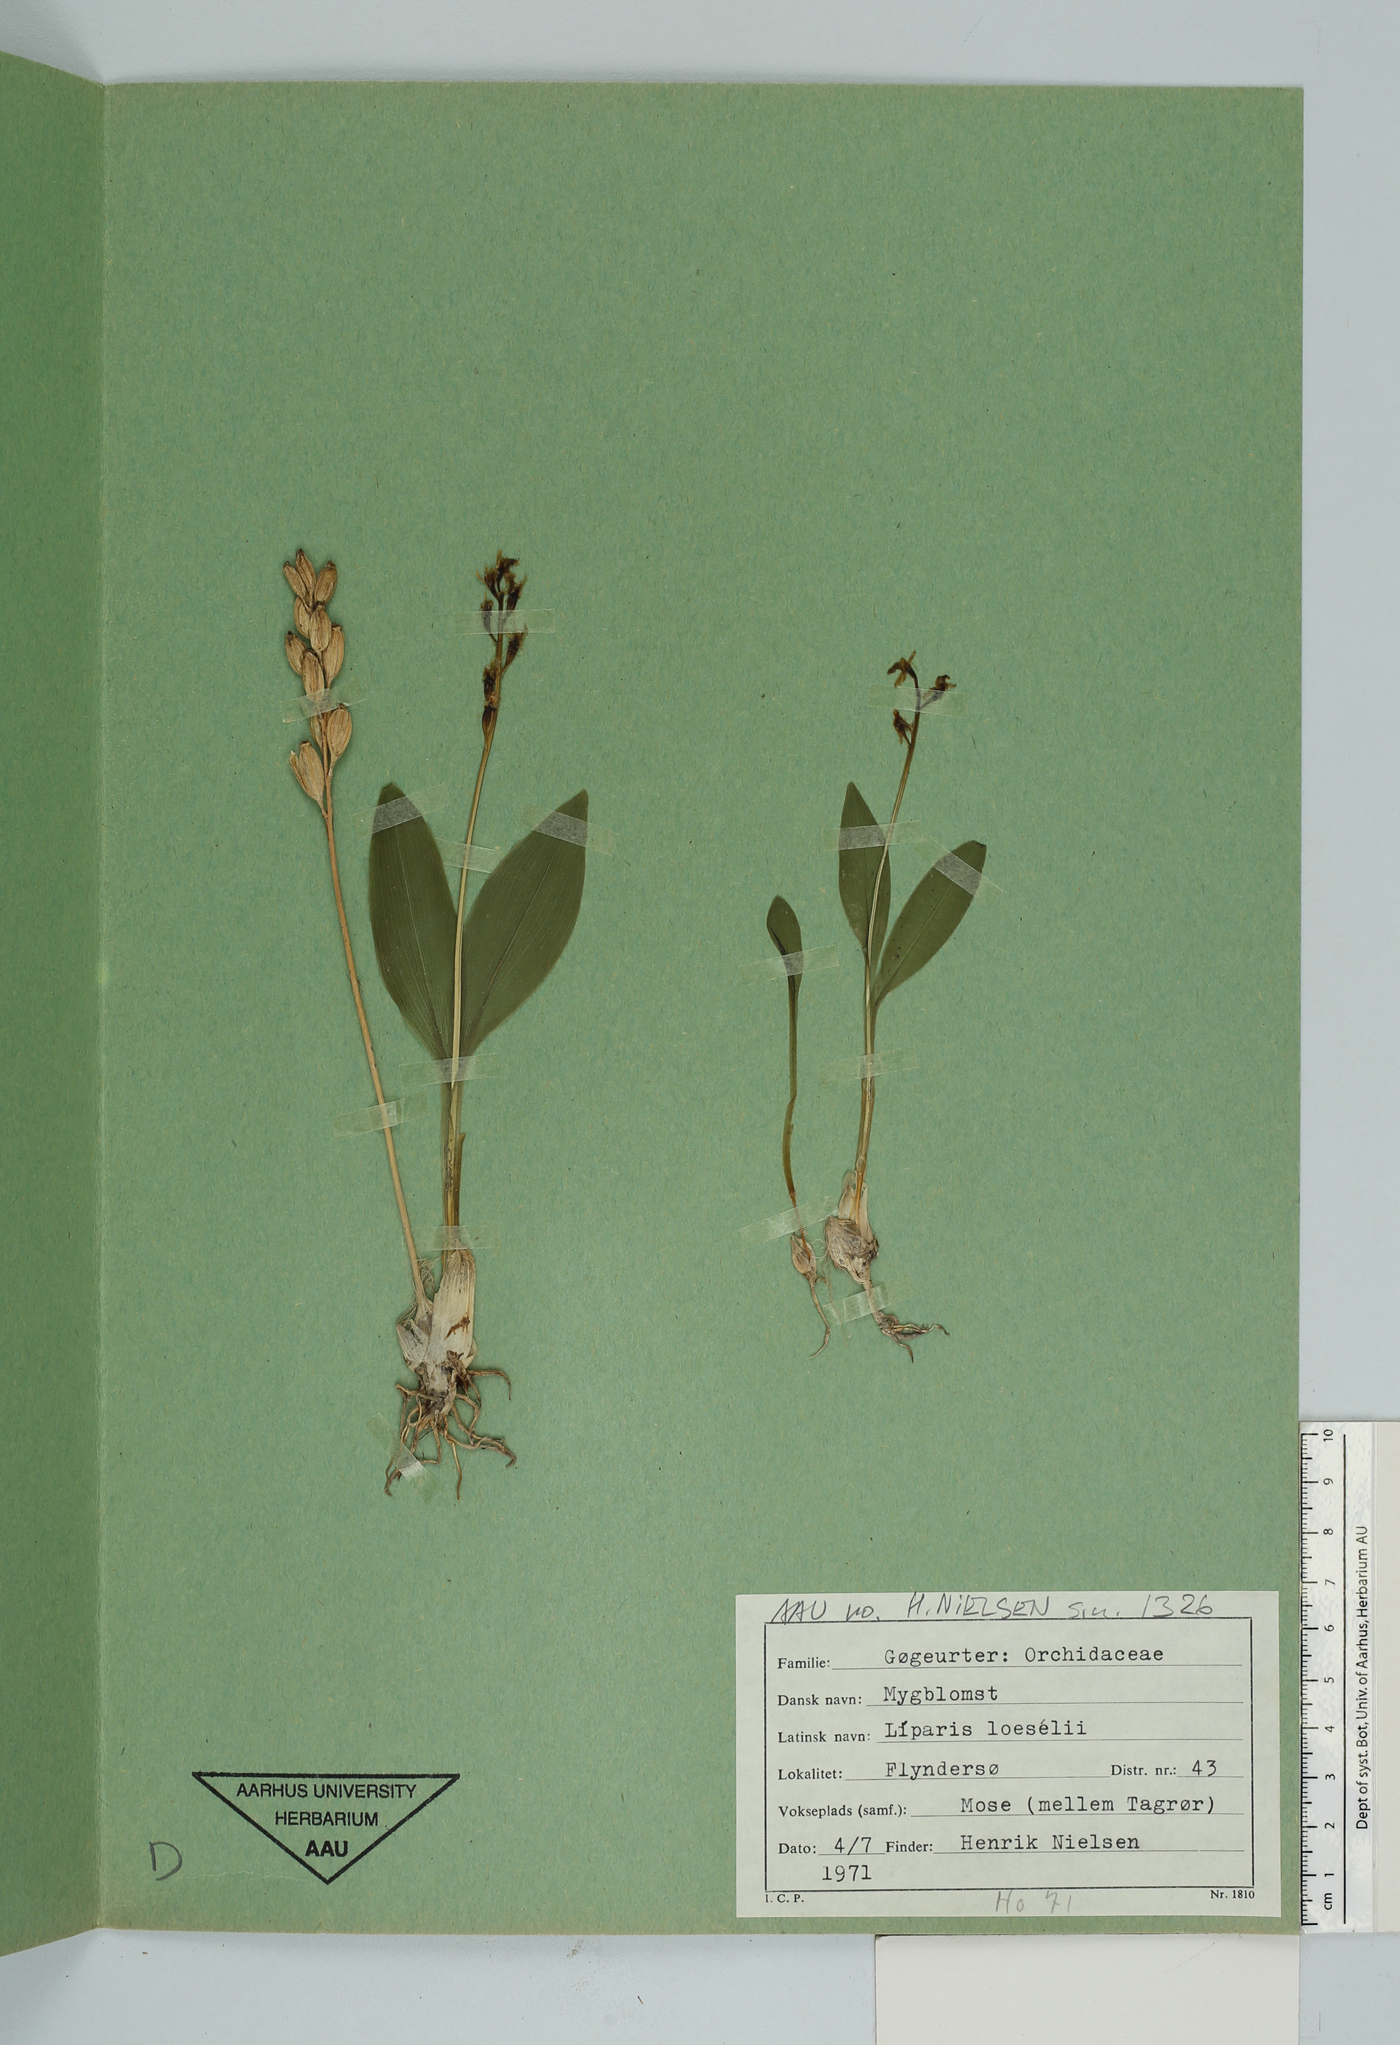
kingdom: Animalia
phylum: Arthropoda
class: Insecta
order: Coleoptera
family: Curculionidae
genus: Liparis
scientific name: Liparis loeselii
